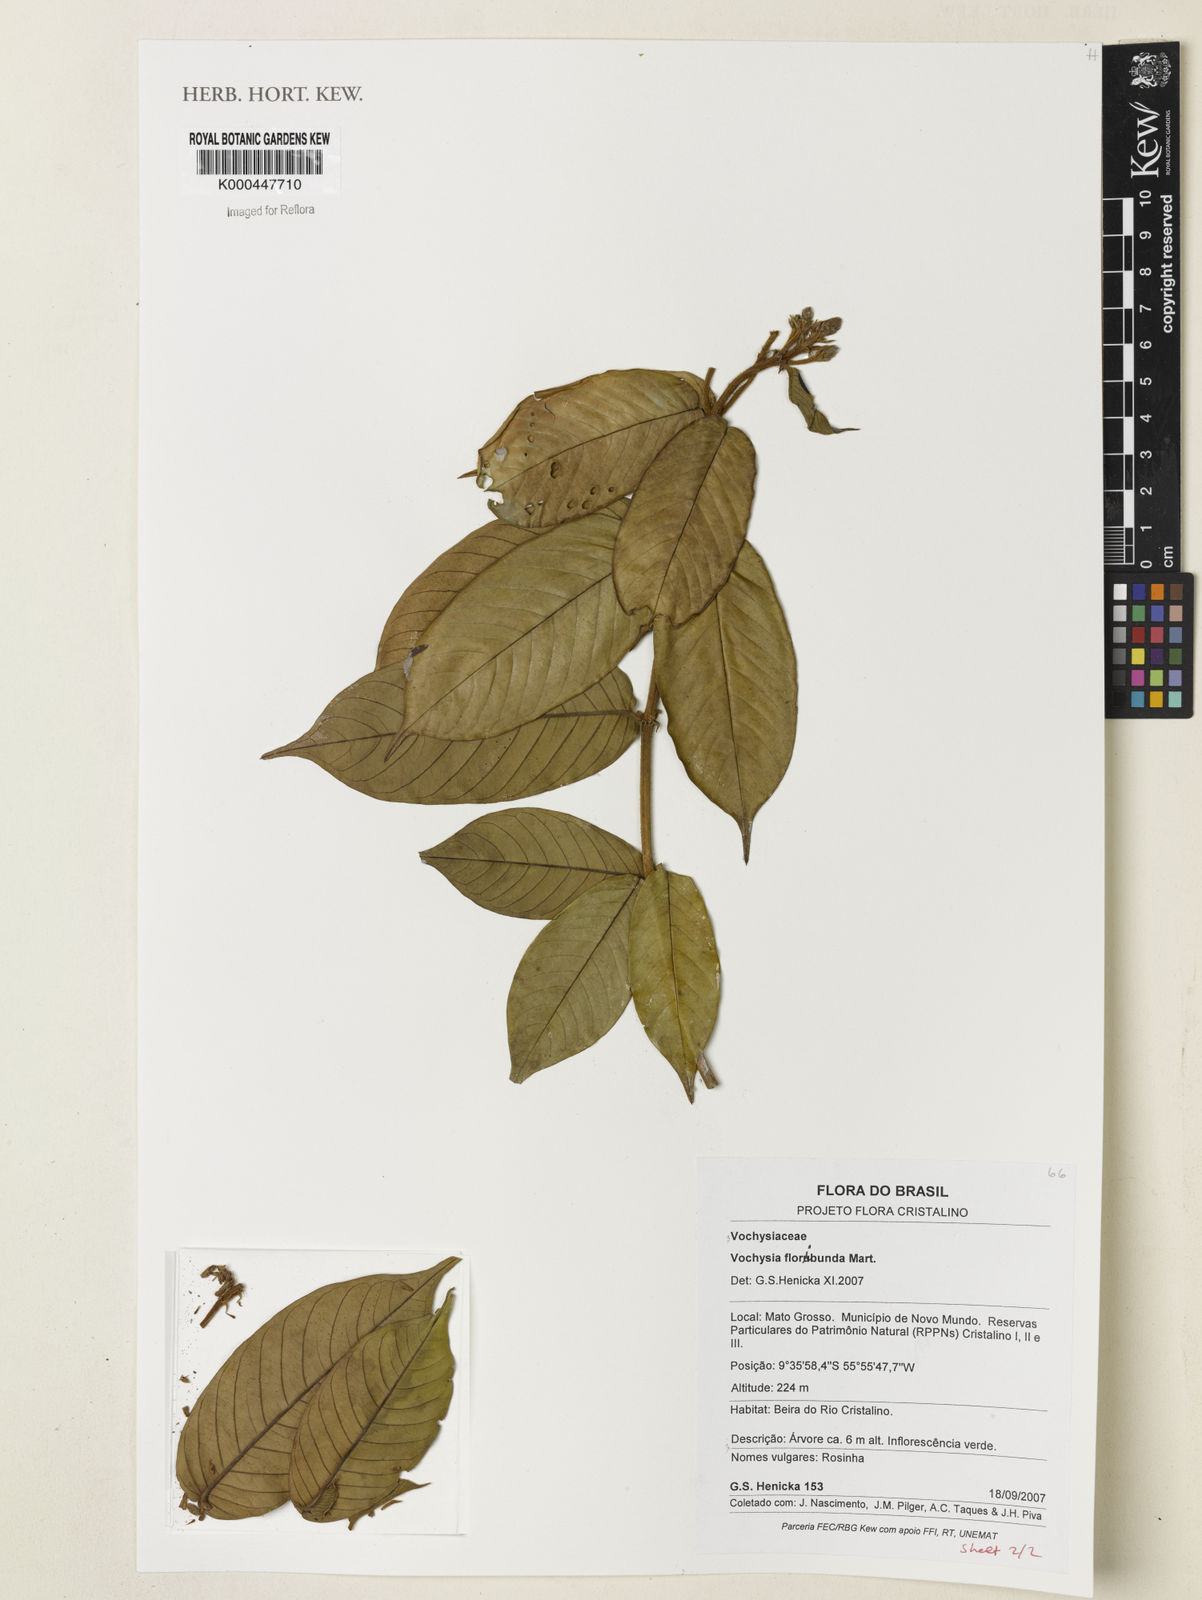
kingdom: Plantae
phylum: Tracheophyta
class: Magnoliopsida
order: Myrtales
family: Vochysiaceae
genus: Vochysia
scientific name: Vochysia floribunda
